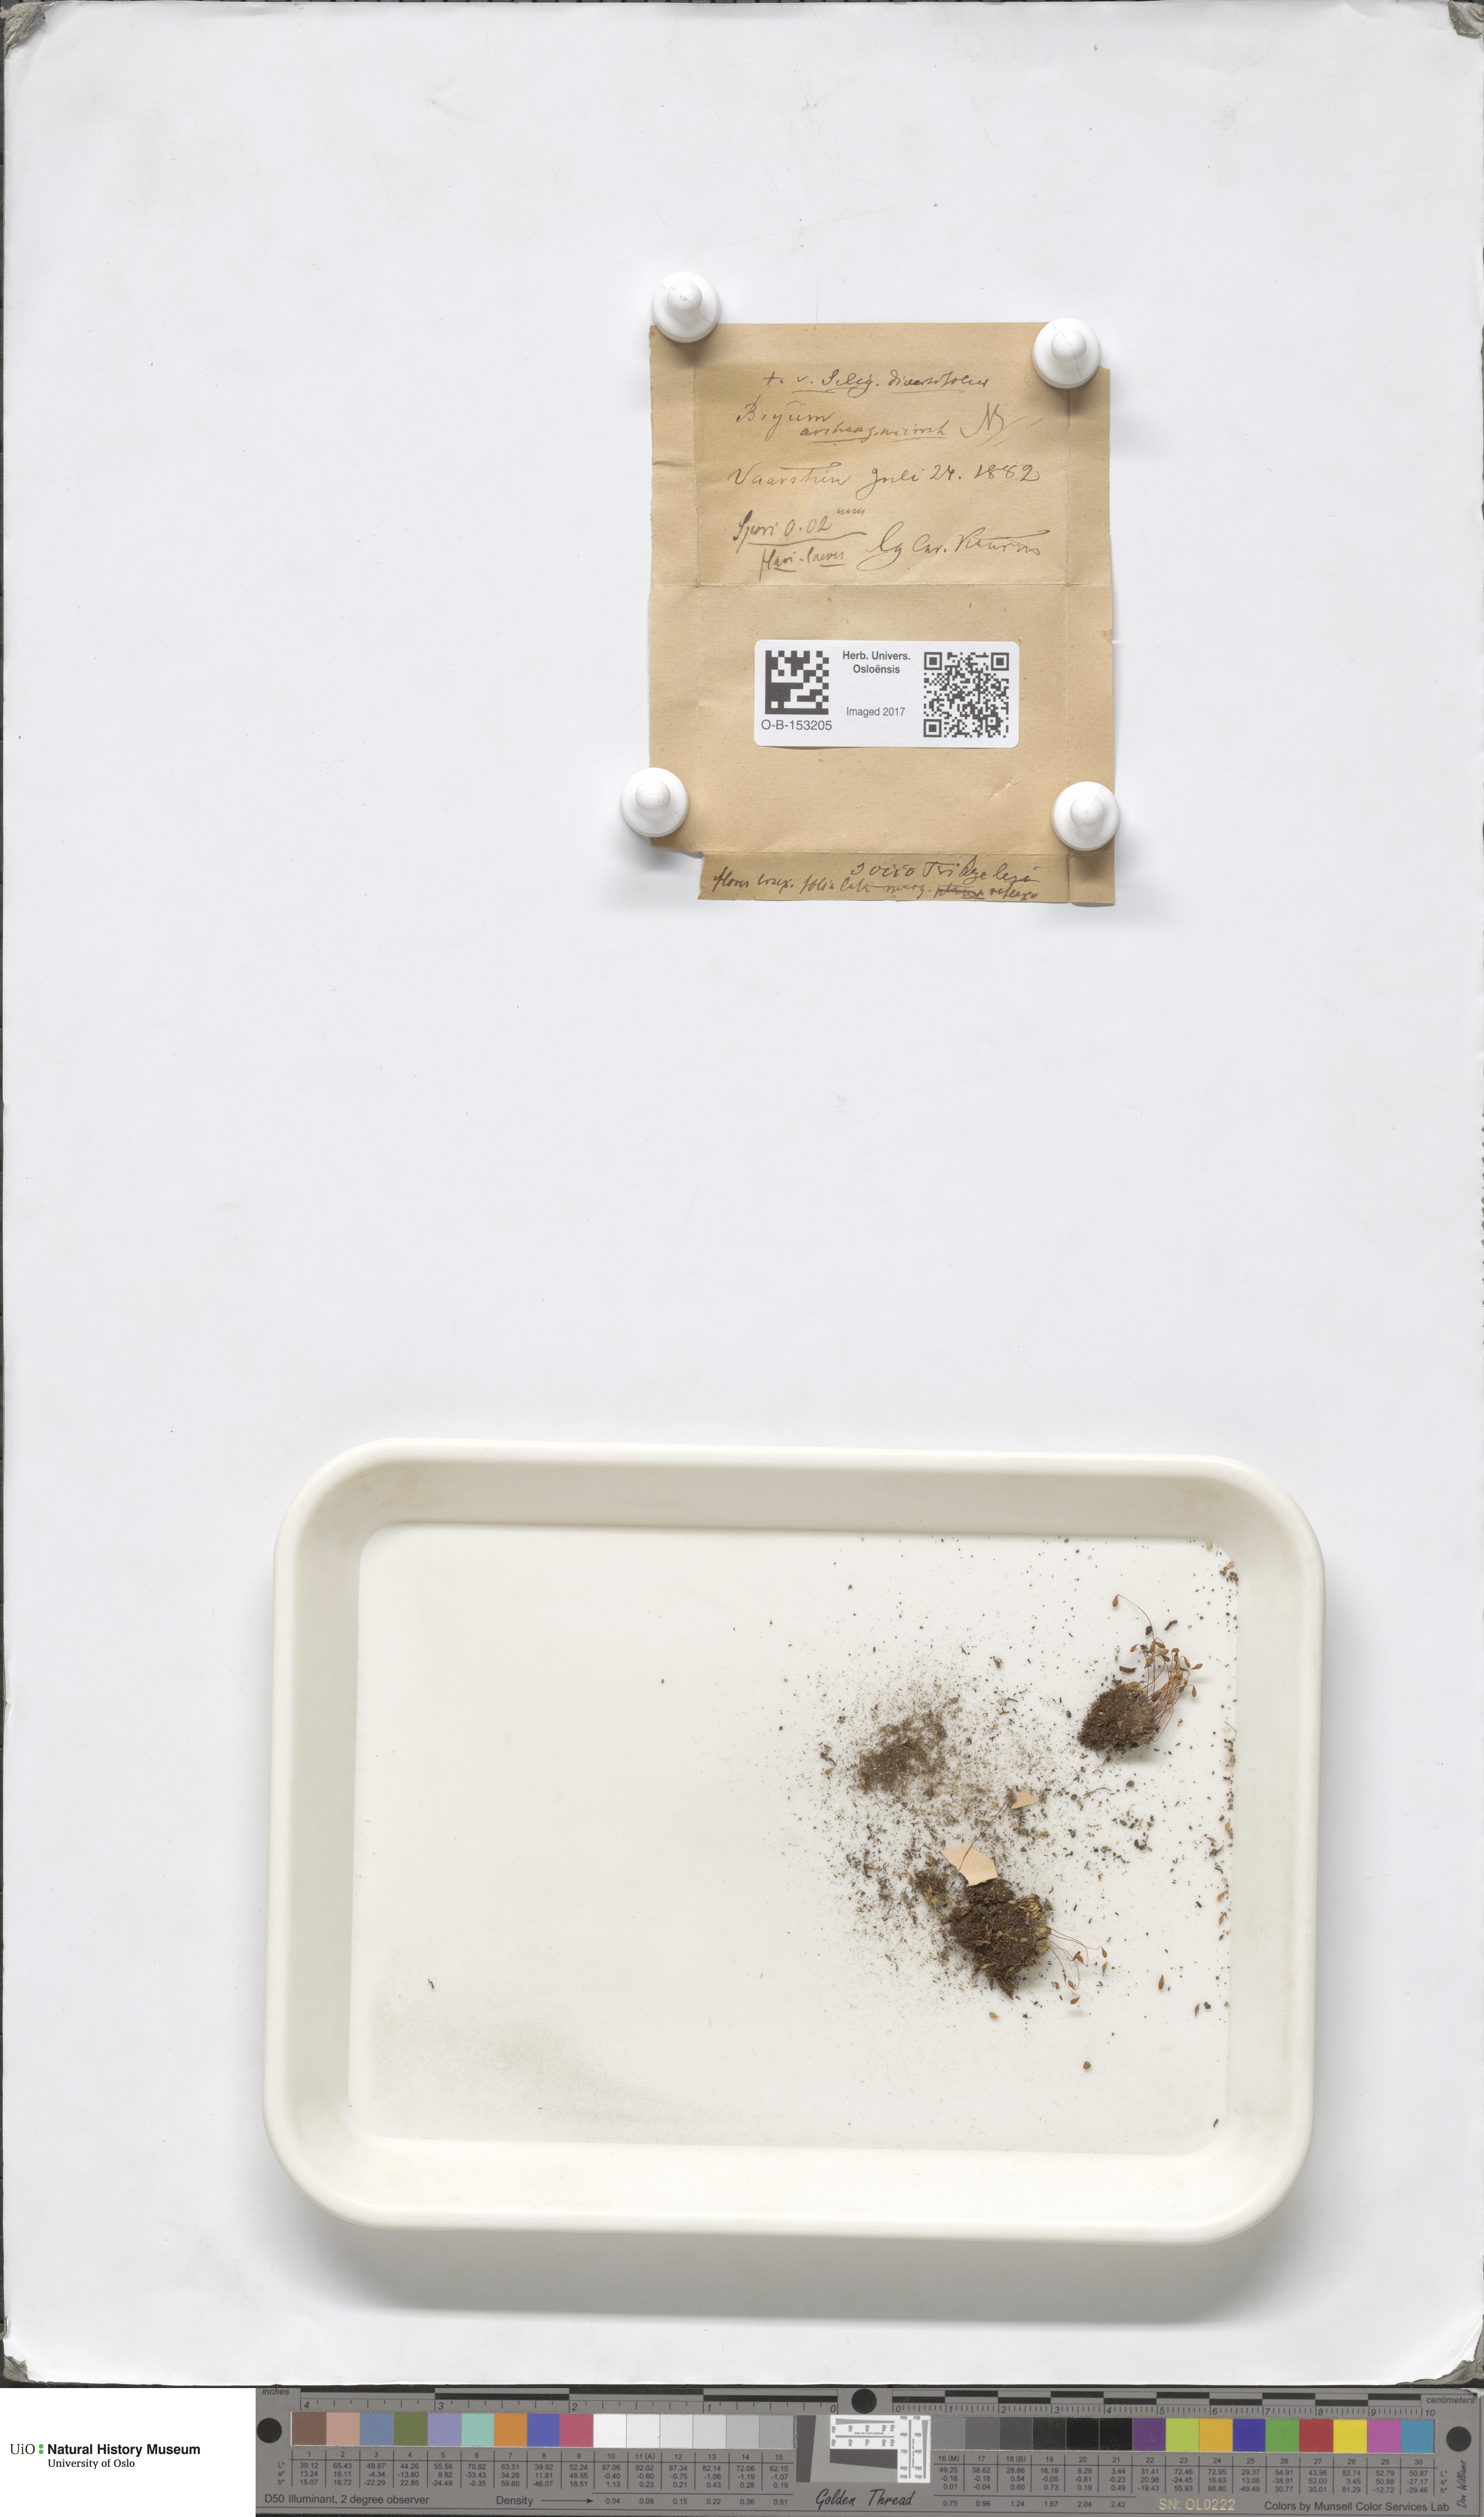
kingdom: Plantae
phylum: Bryophyta
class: Bryopsida
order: Bryales
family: Bryaceae
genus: Ptychostomum
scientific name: Ptychostomum inclinatum
